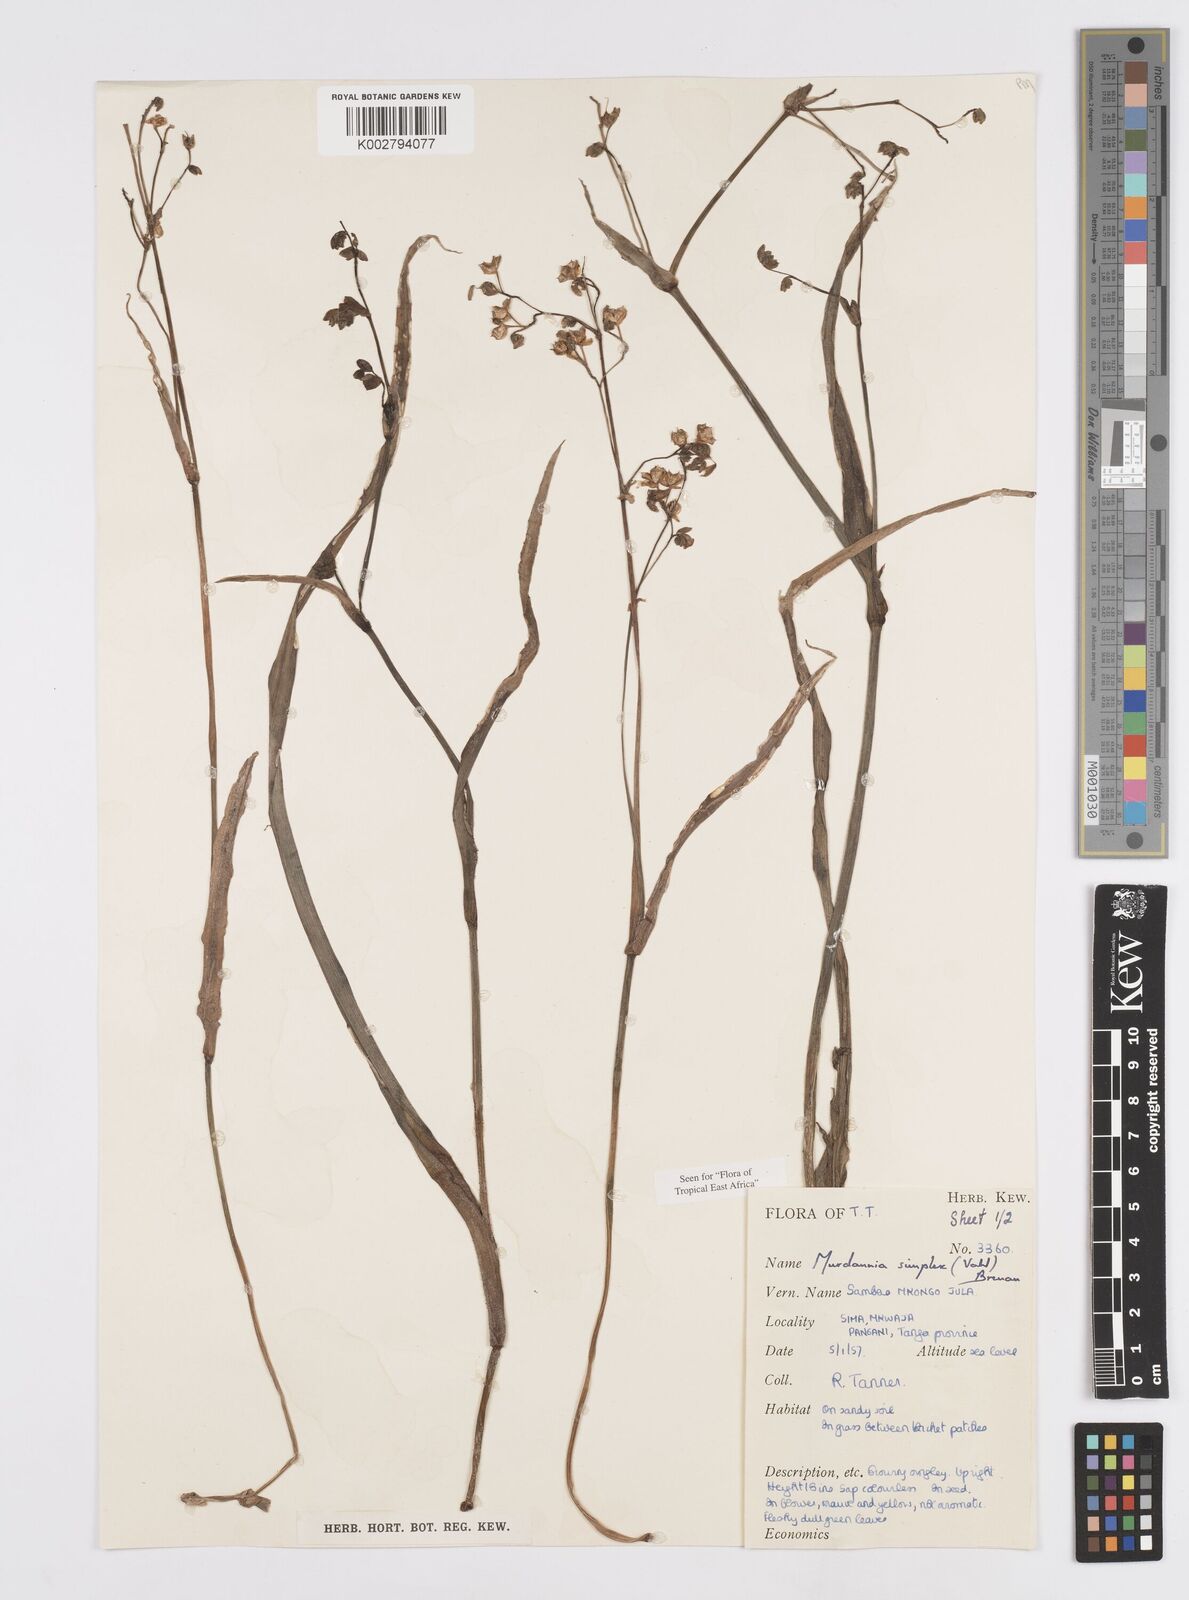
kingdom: Plantae
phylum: Tracheophyta
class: Liliopsida
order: Commelinales
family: Commelinaceae
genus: Murdannia
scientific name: Murdannia simplex
